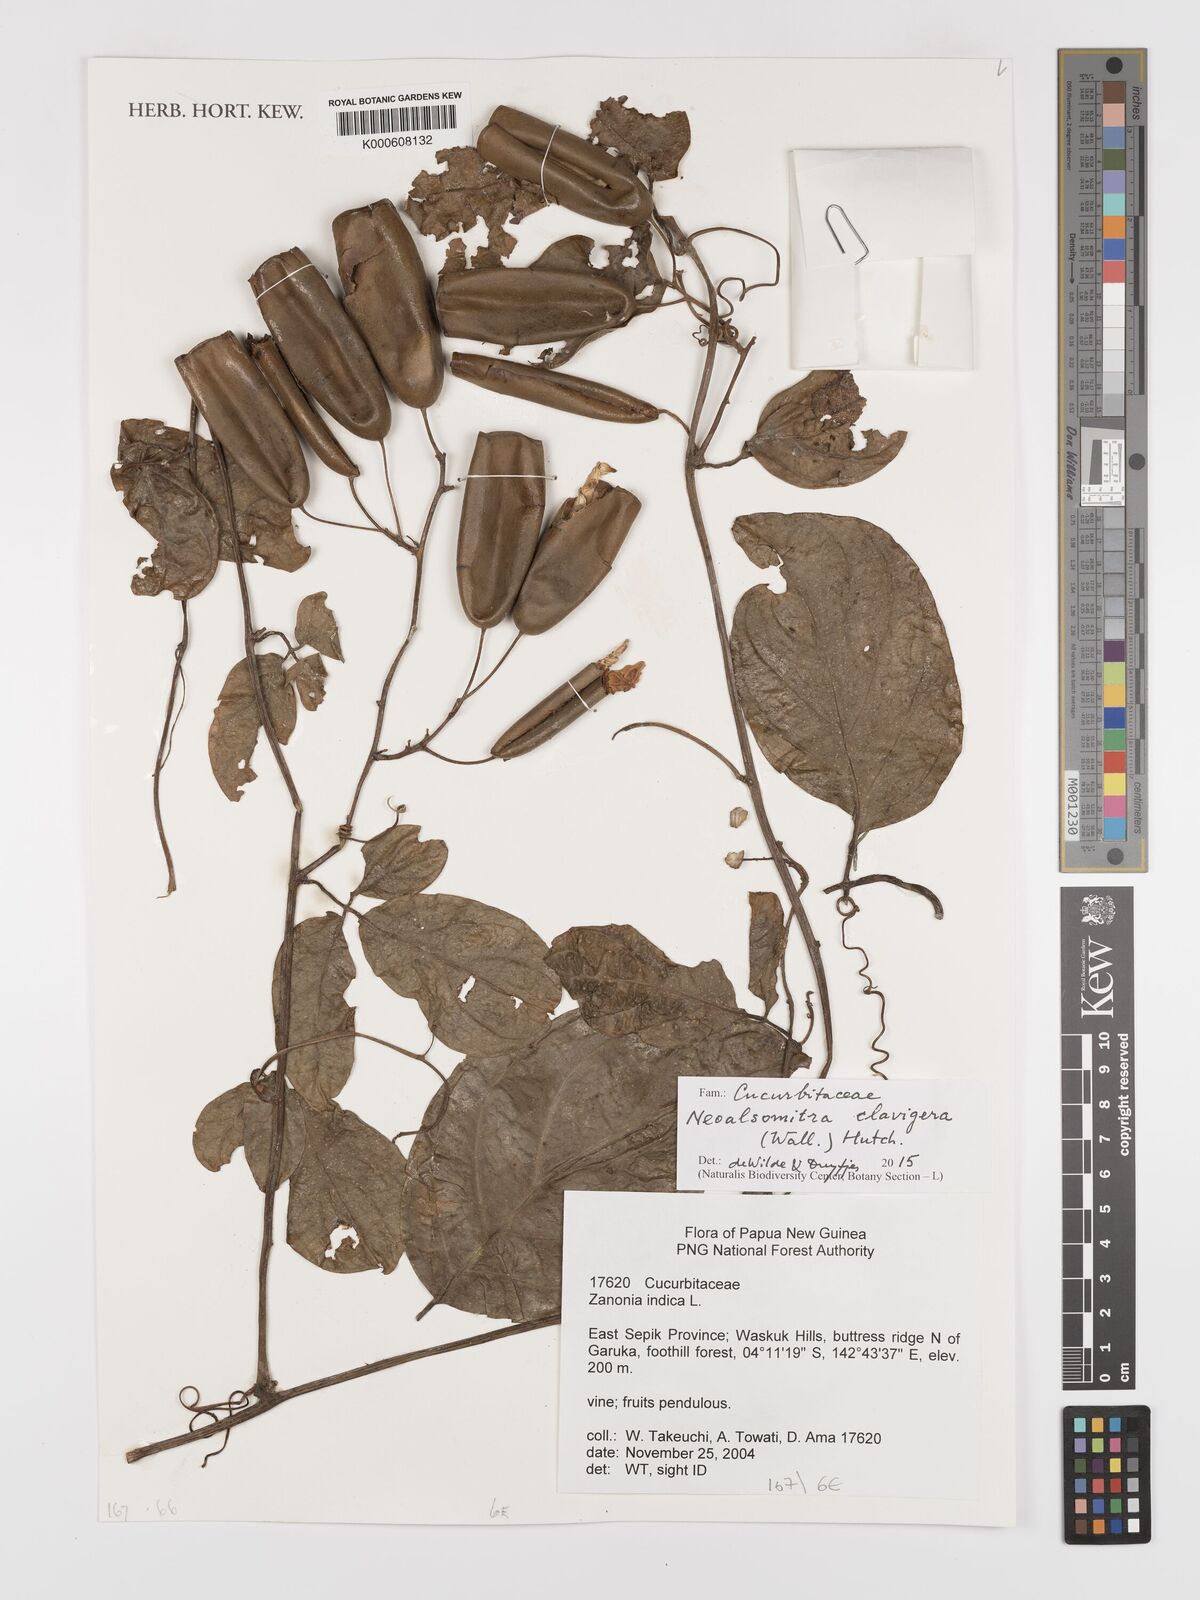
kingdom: Plantae
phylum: Tracheophyta
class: Magnoliopsida
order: Cucurbitales
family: Cucurbitaceae
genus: Neoalsomitra
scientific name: Neoalsomitra clavigera
